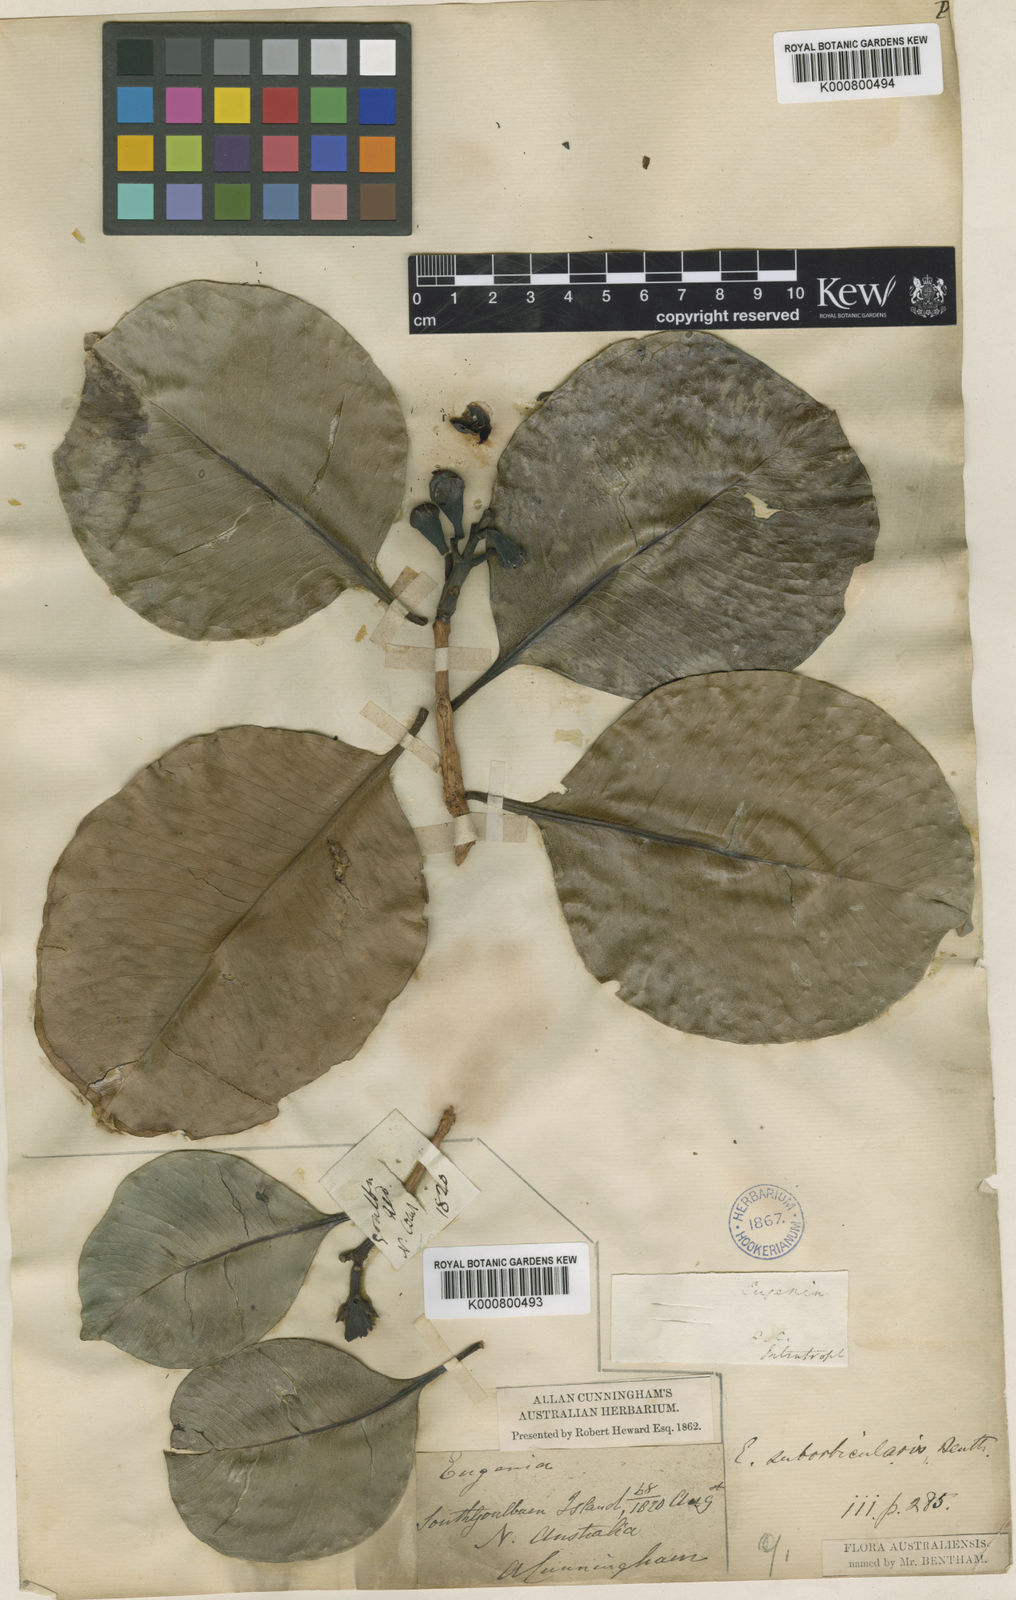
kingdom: Plantae
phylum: Tracheophyta
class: Magnoliopsida
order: Myrtales
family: Myrtaceae
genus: Syzygium
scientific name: Syzygium suborbiculare
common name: Red bush apple
